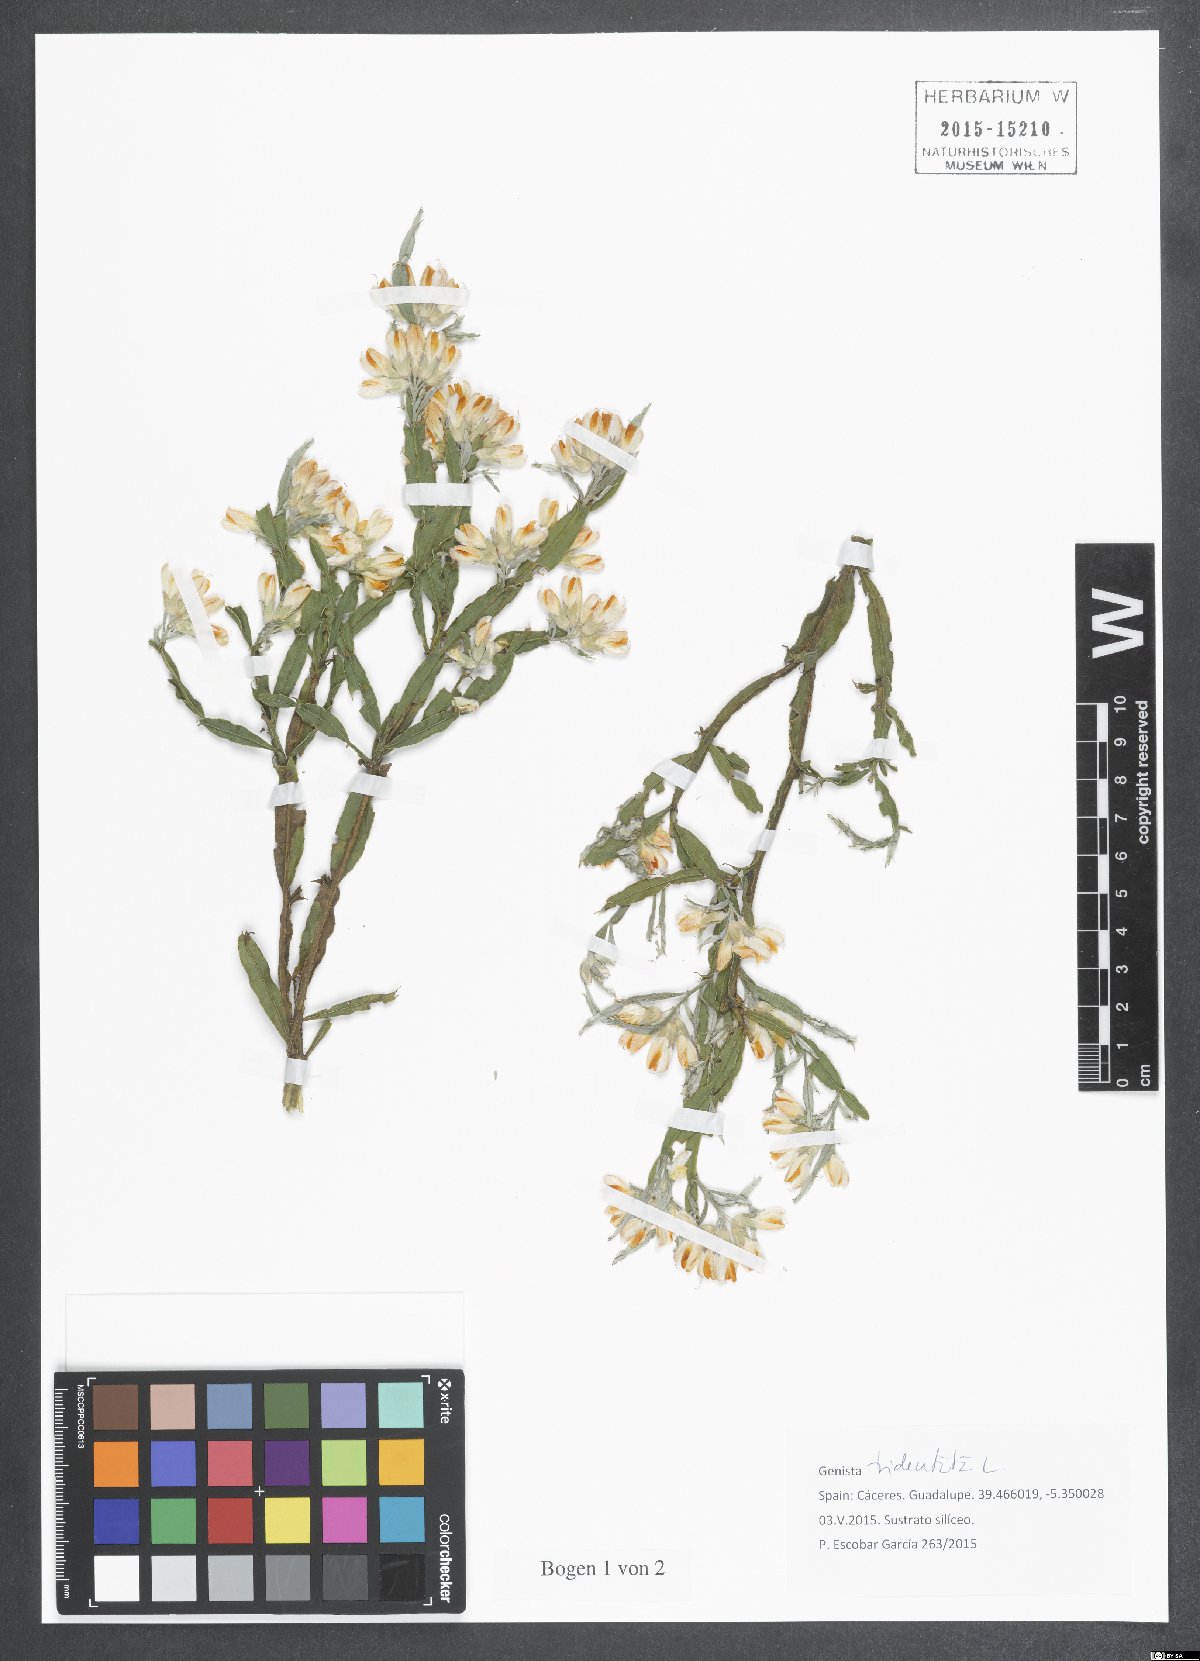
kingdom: Plantae
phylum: Tracheophyta
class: Magnoliopsida
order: Fabales
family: Fabaceae
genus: Genista
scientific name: Genista tridentata
